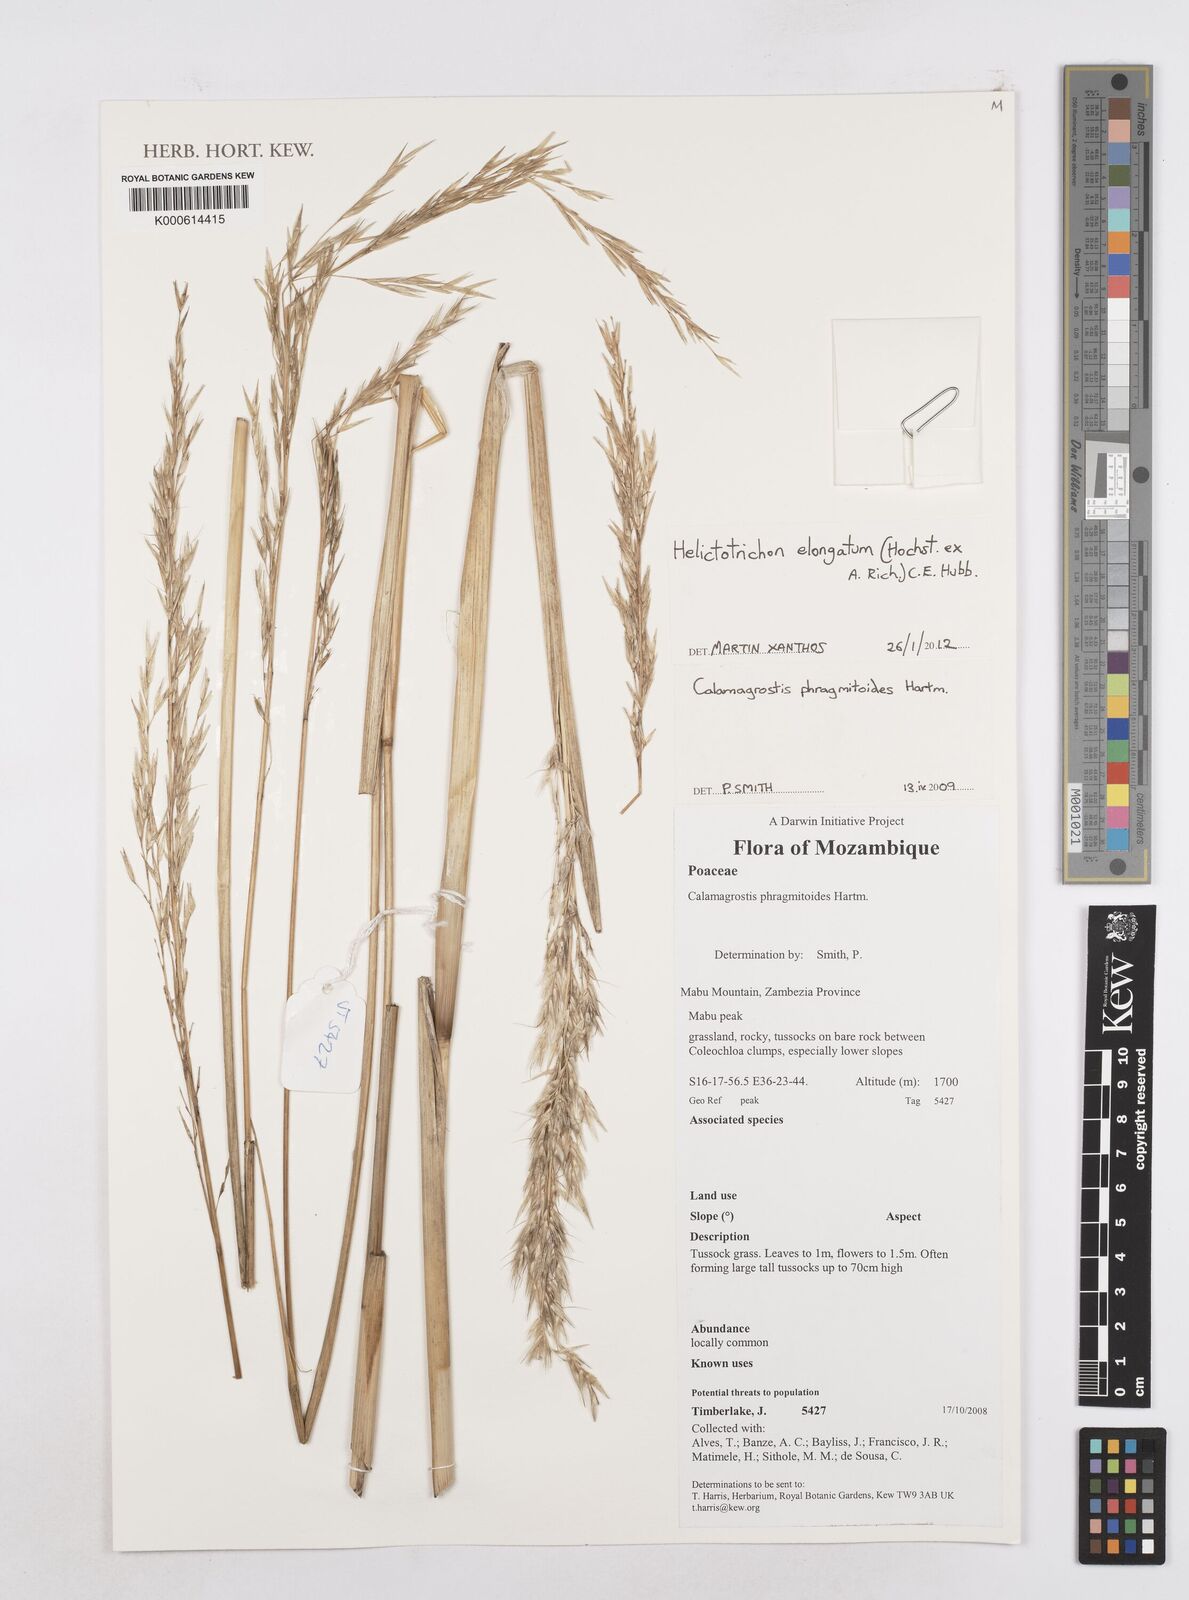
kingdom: Plantae
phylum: Tracheophyta
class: Liliopsida
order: Poales
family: Poaceae
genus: Trisetopsis
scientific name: Trisetopsis elongata
